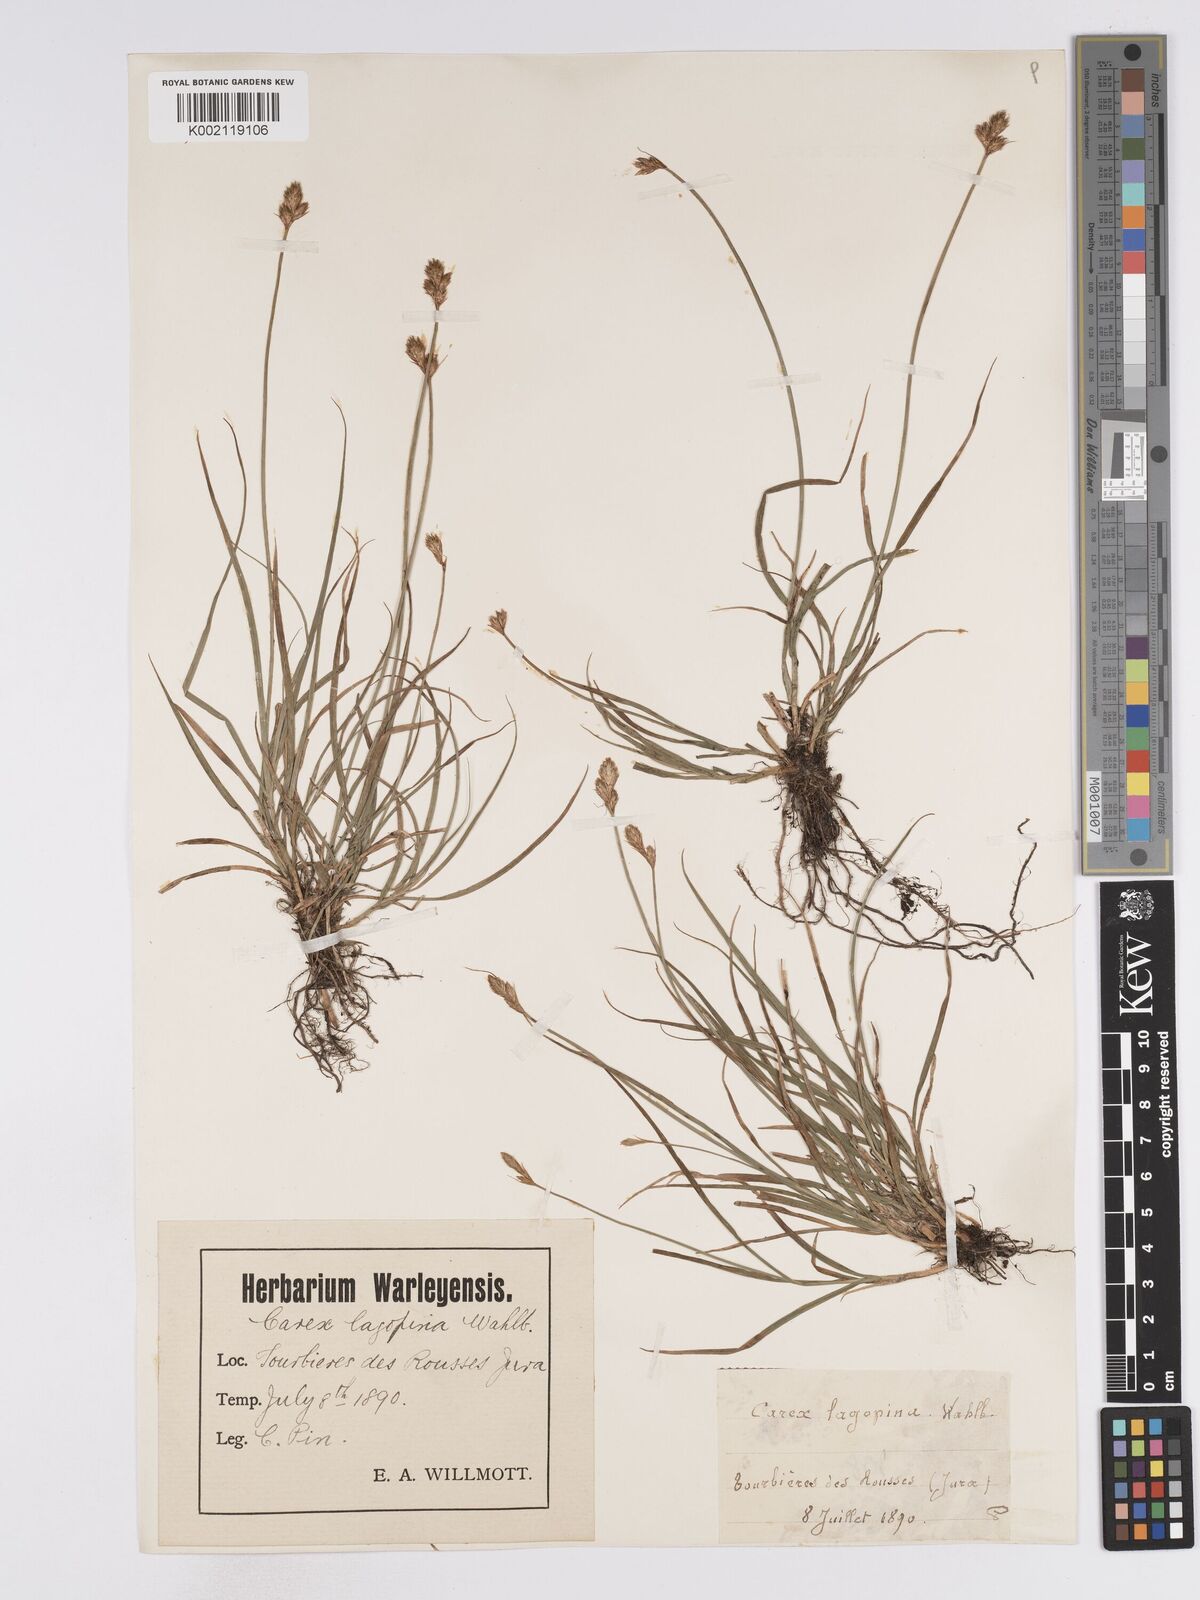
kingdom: Plantae
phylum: Tracheophyta
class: Liliopsida
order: Poales
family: Cyperaceae
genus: Carex
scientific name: Carex leporina
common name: Oval sedge
